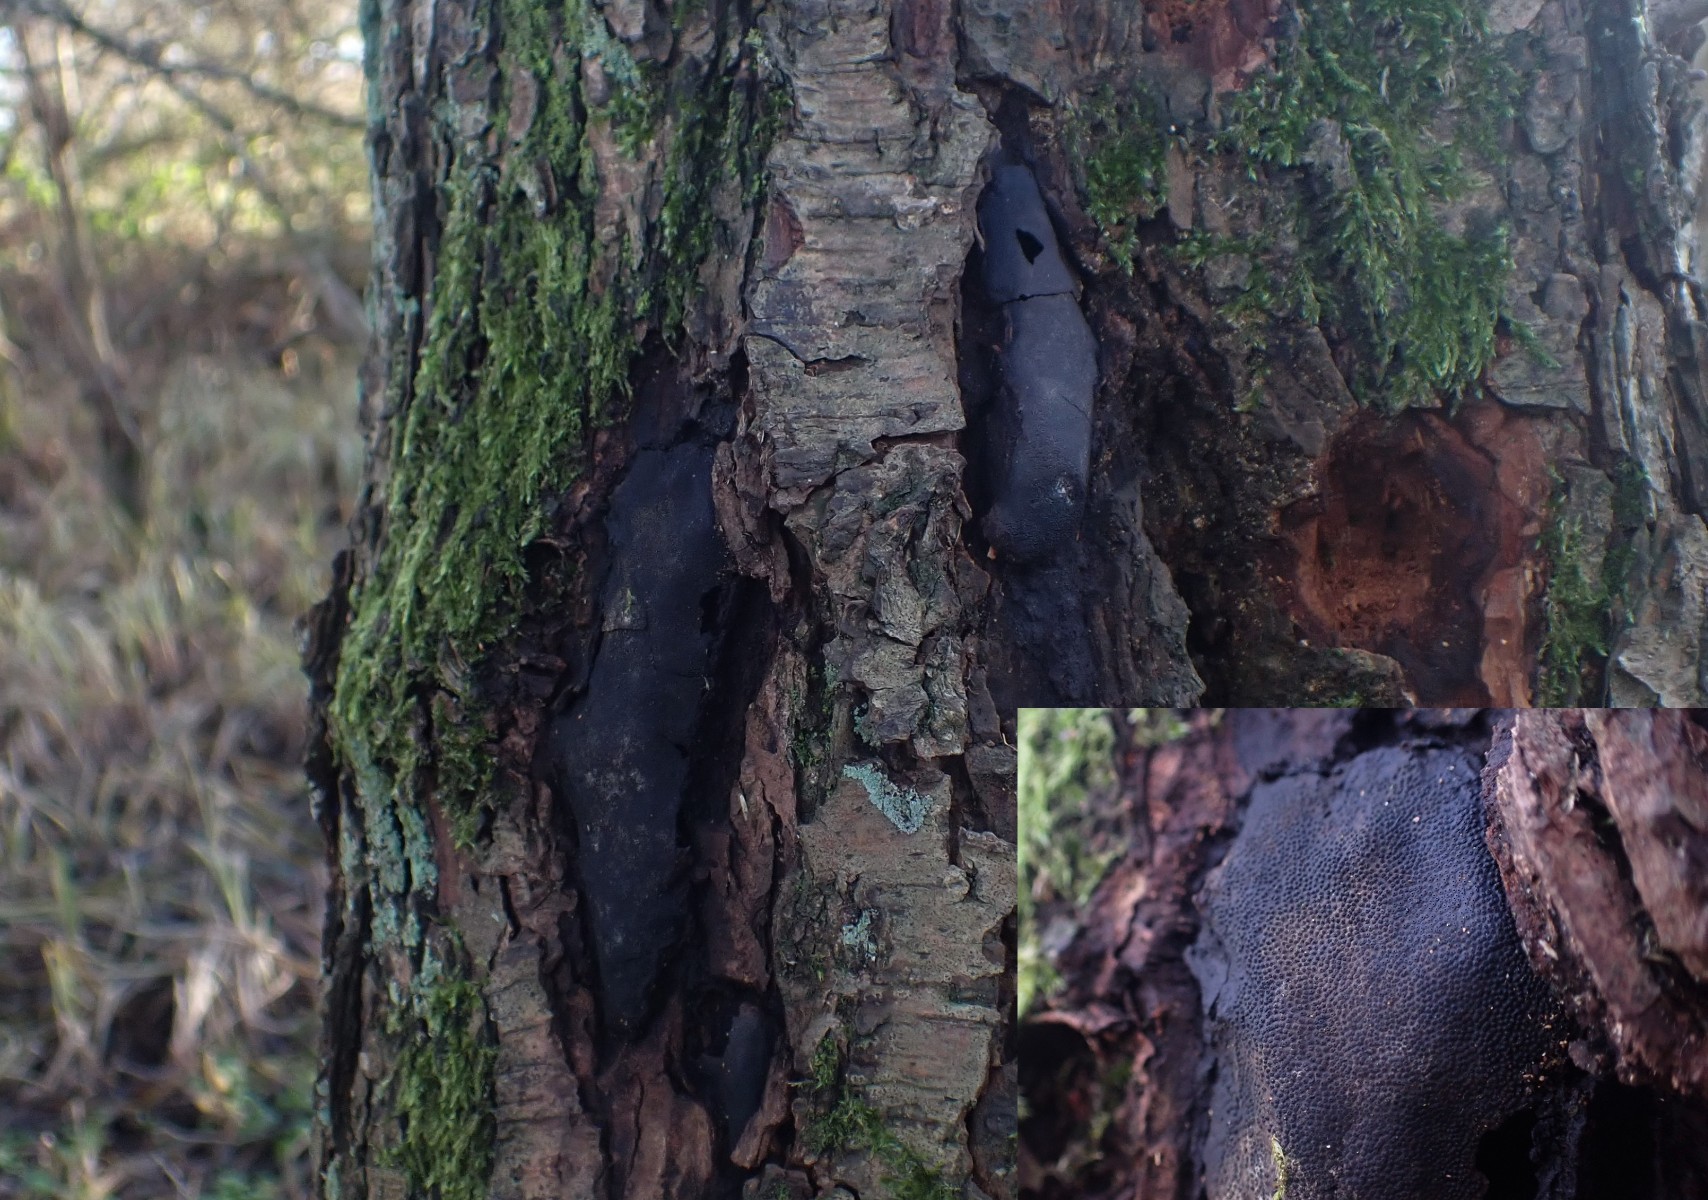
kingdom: Fungi
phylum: Ascomycota
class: Sordariomycetes
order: Boliniales
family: Boliniaceae
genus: Camarops
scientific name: Camarops polysperma
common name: elle-kulsnegl
